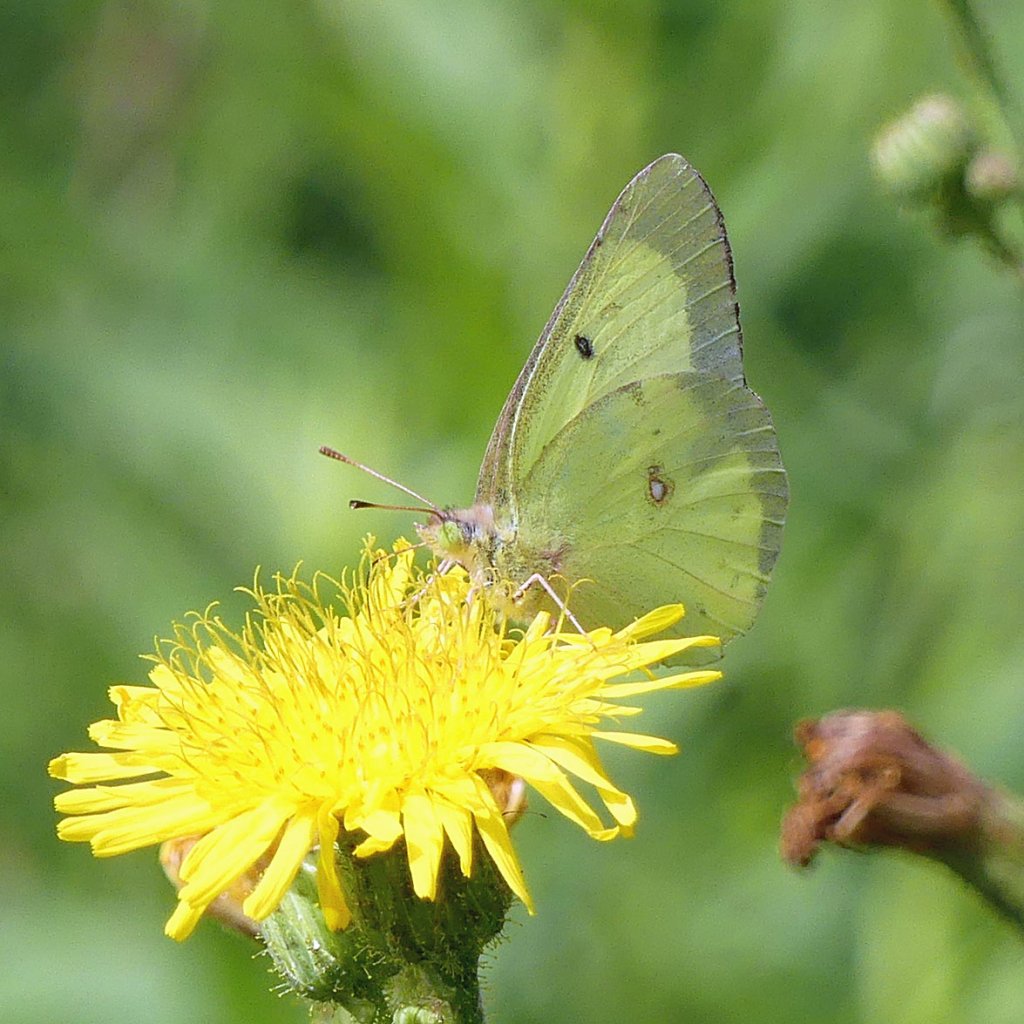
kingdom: Animalia
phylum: Arthropoda
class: Insecta
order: Lepidoptera
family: Pieridae
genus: Colias
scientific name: Colias philodice
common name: Clouded Sulphur
